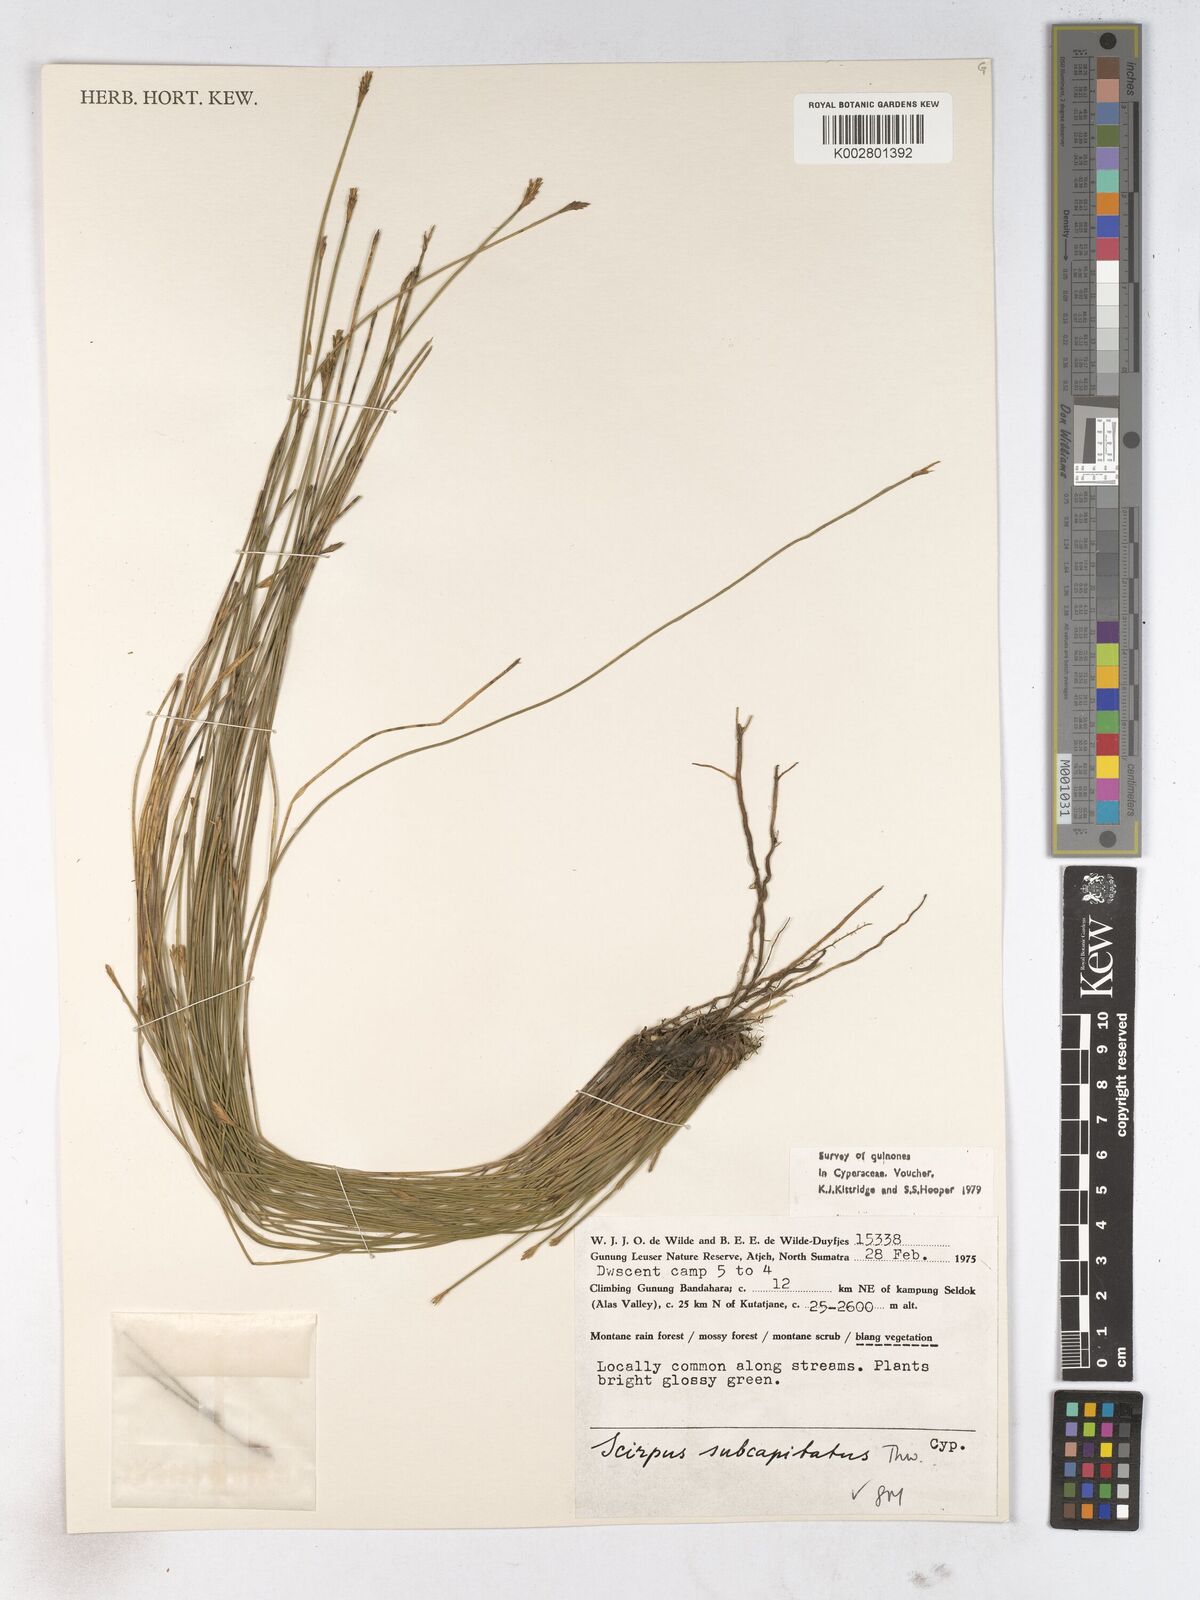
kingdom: Plantae
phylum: Tracheophyta
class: Liliopsida
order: Poales
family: Cyperaceae
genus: Trichophorum
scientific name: Trichophorum subcapitatum
